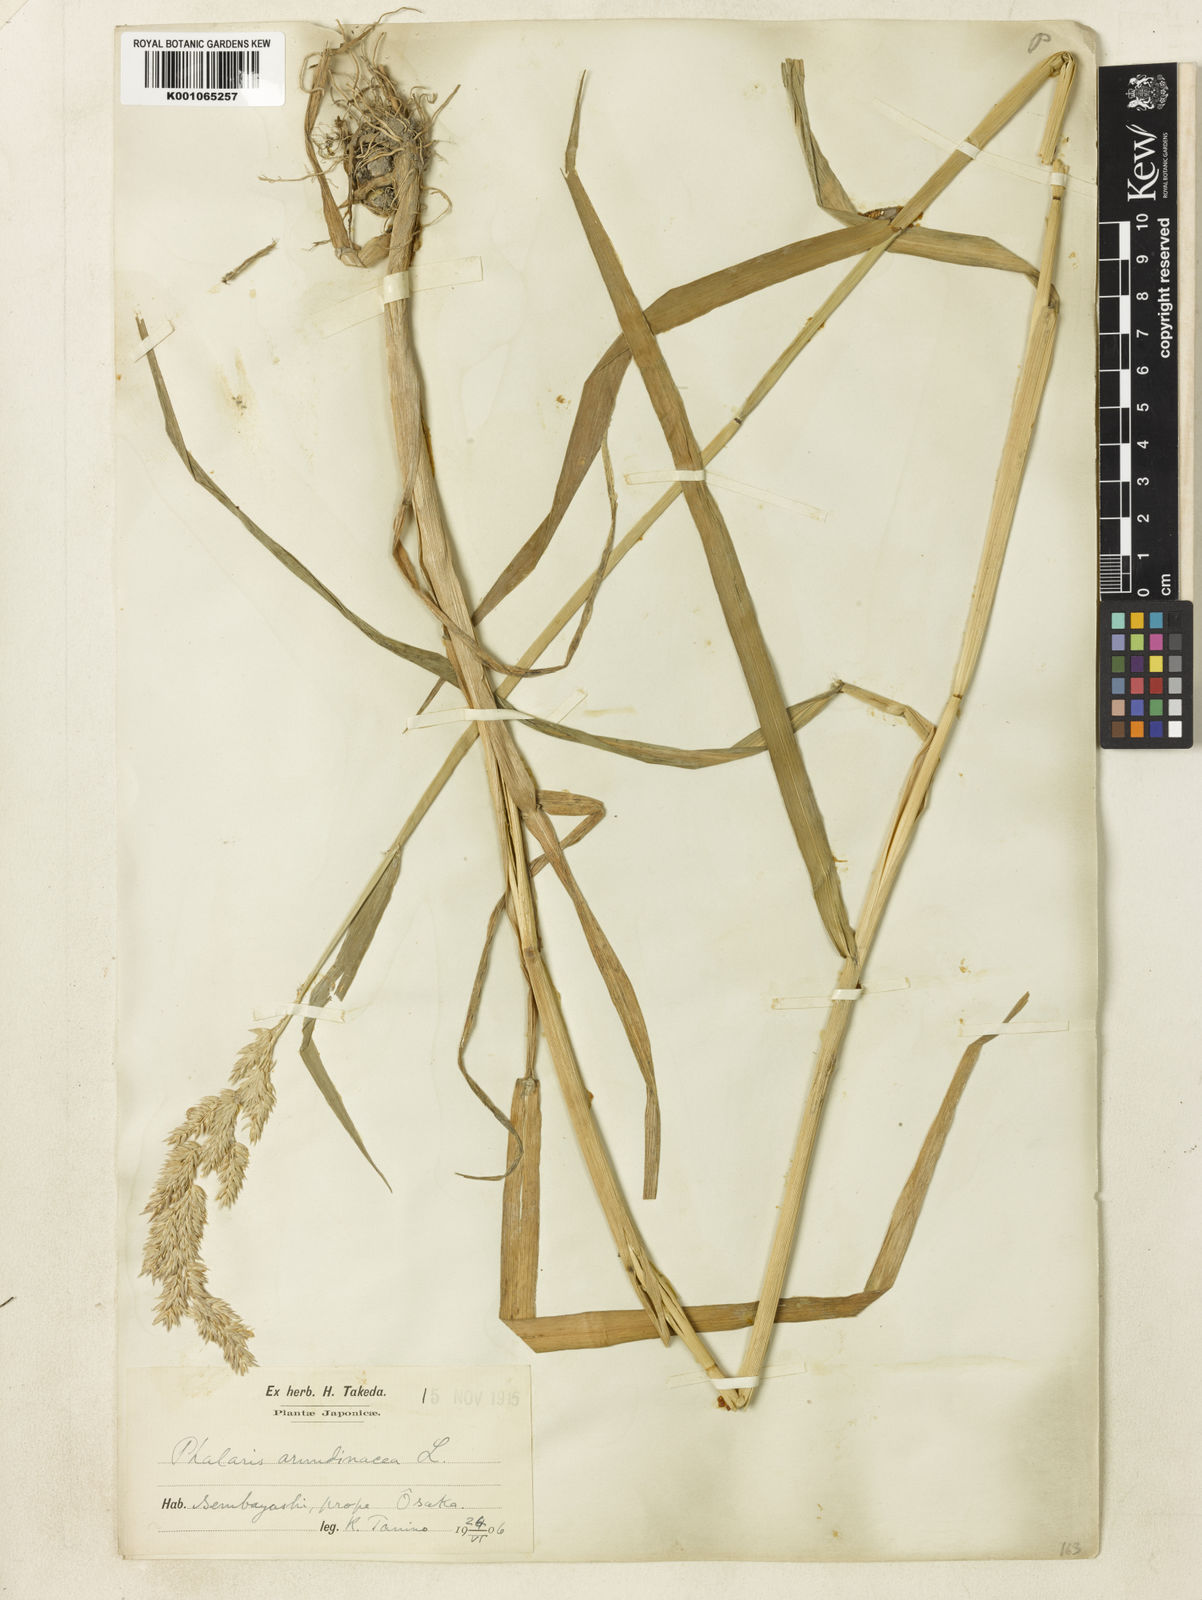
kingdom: Plantae
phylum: Tracheophyta
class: Liliopsida
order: Poales
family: Poaceae
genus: Phalaris
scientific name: Phalaris arundinacea
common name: Reed canary-grass
